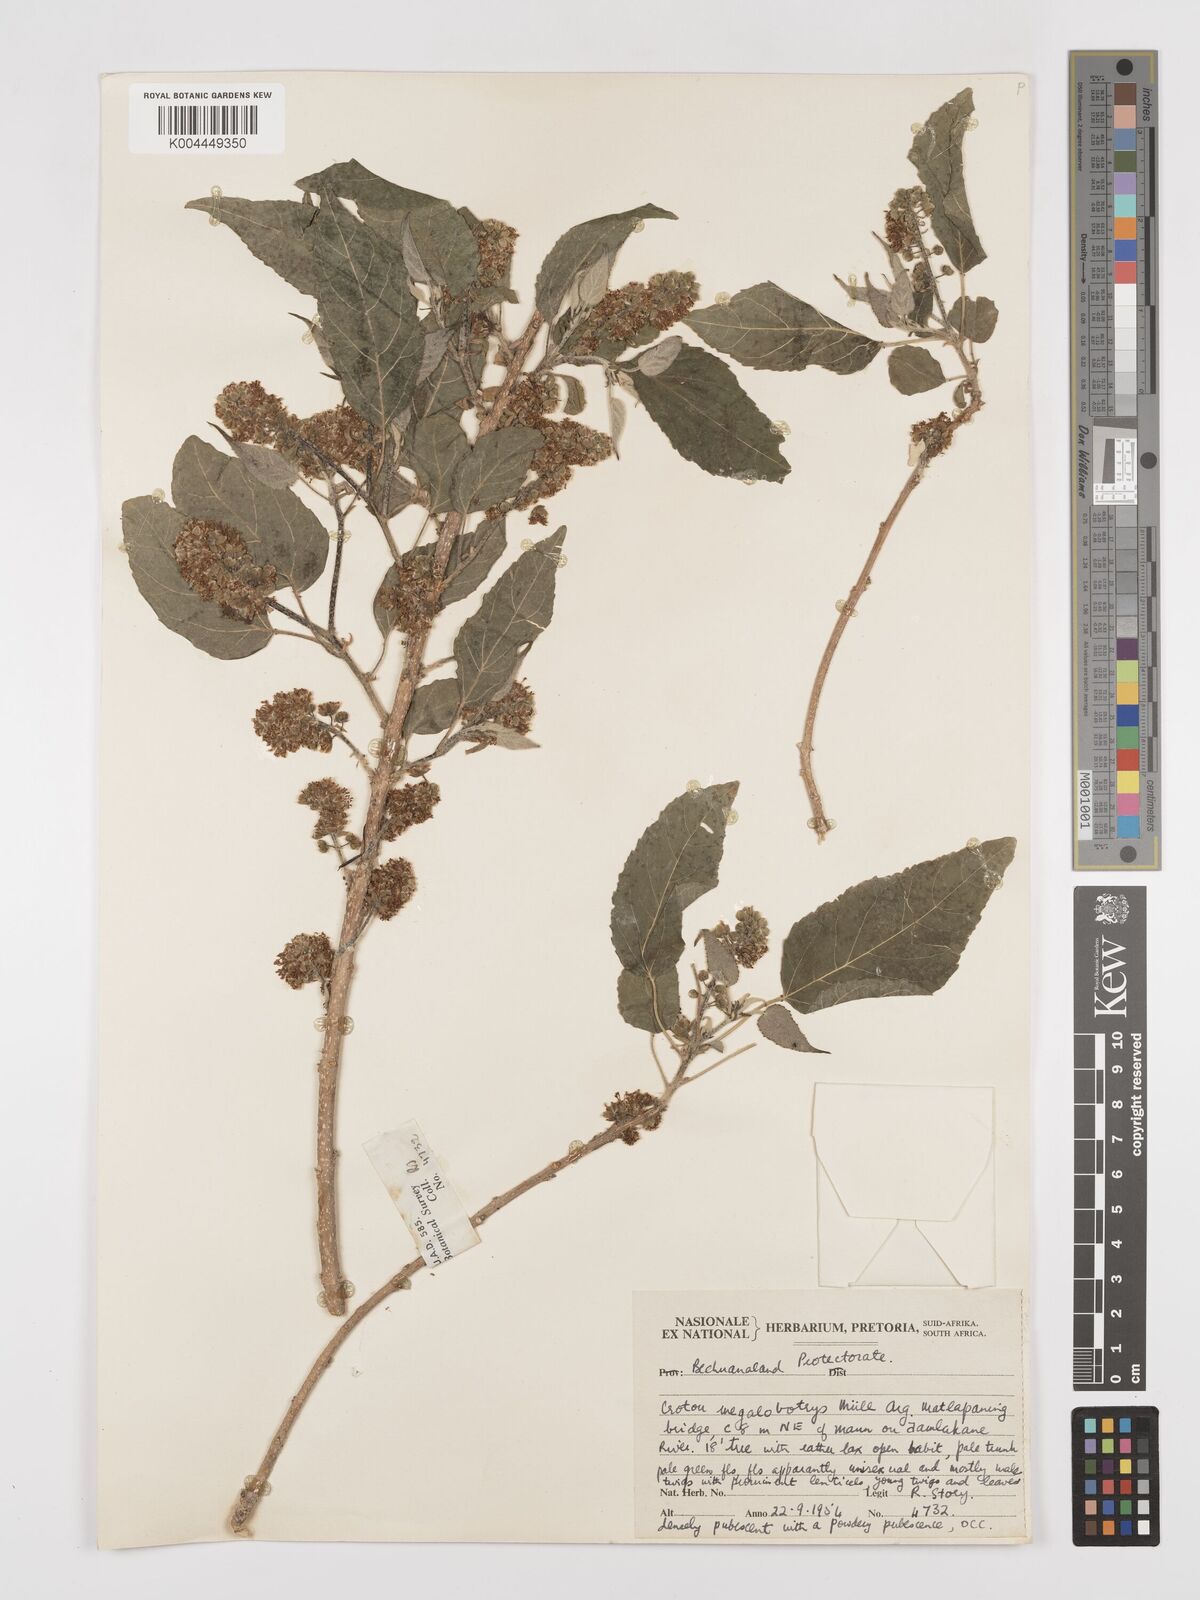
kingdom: Plantae
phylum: Tracheophyta
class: Magnoliopsida
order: Malpighiales
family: Euphorbiaceae
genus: Croton
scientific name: Croton megalobotrys
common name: Large fever berry
